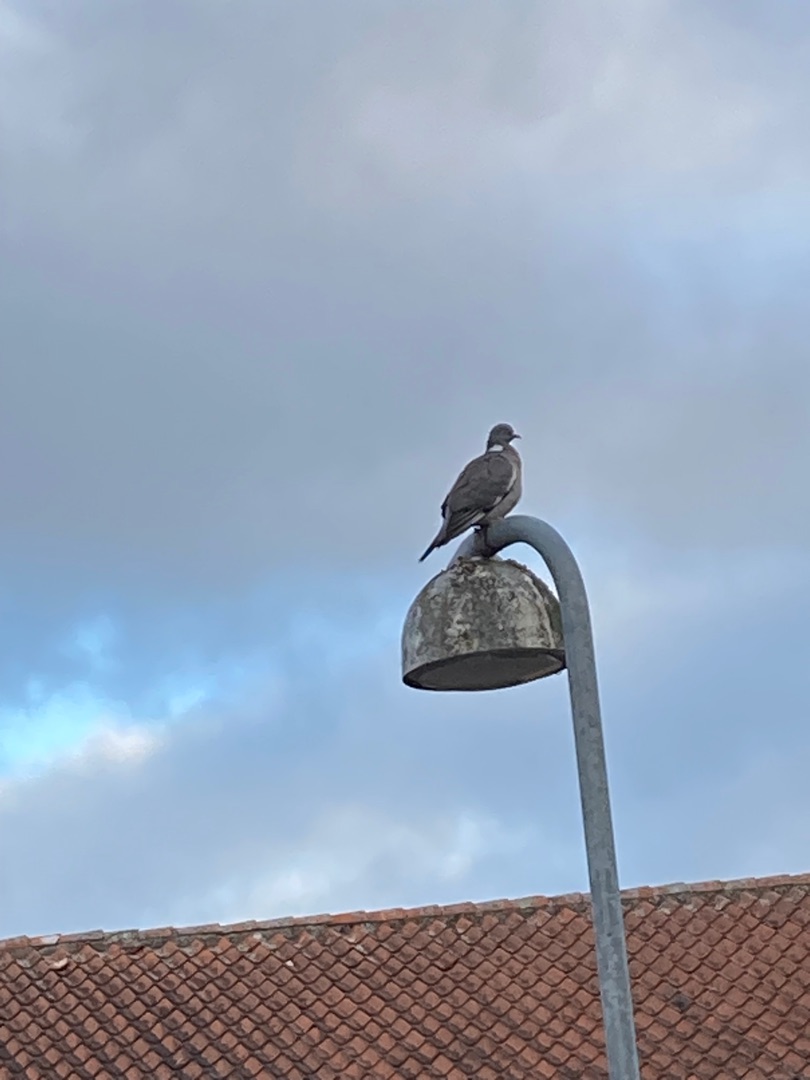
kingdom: Animalia
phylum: Chordata
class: Aves
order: Columbiformes
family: Columbidae
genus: Columba
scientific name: Columba palumbus
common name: Ringdue
